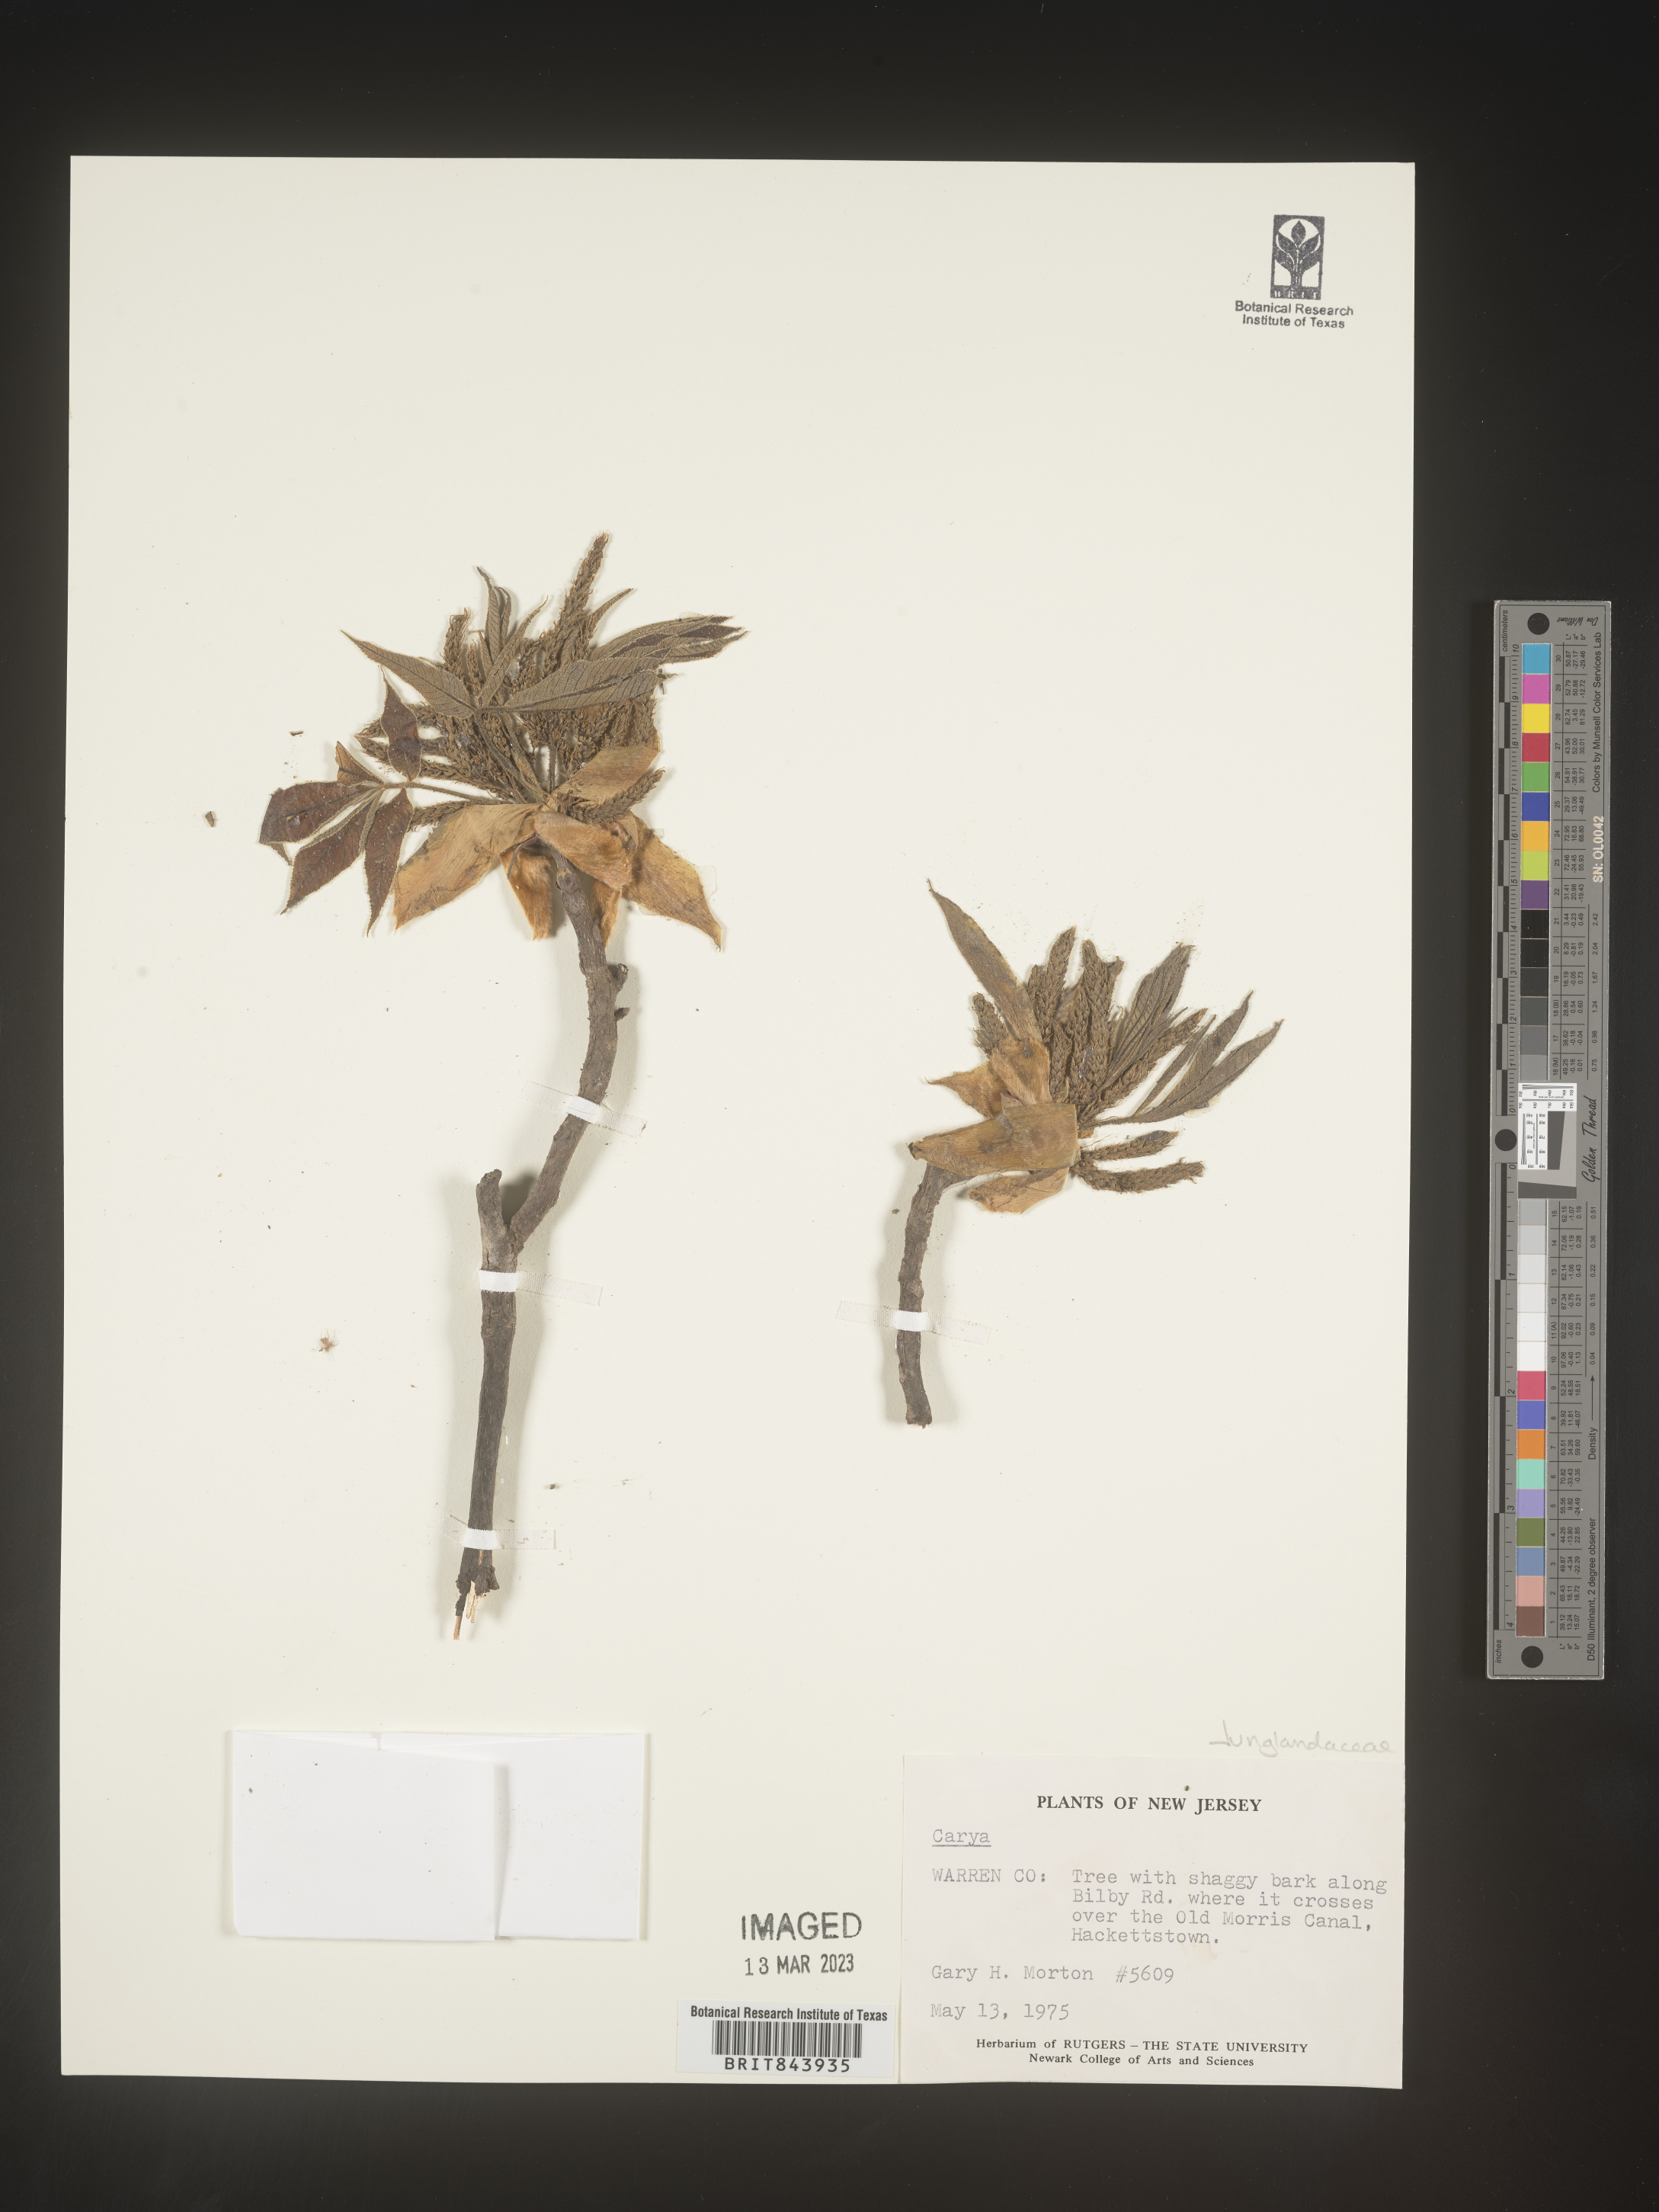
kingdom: Plantae
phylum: Tracheophyta
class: Magnoliopsida
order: Fagales
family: Juglandaceae
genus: Carya
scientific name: Carya
